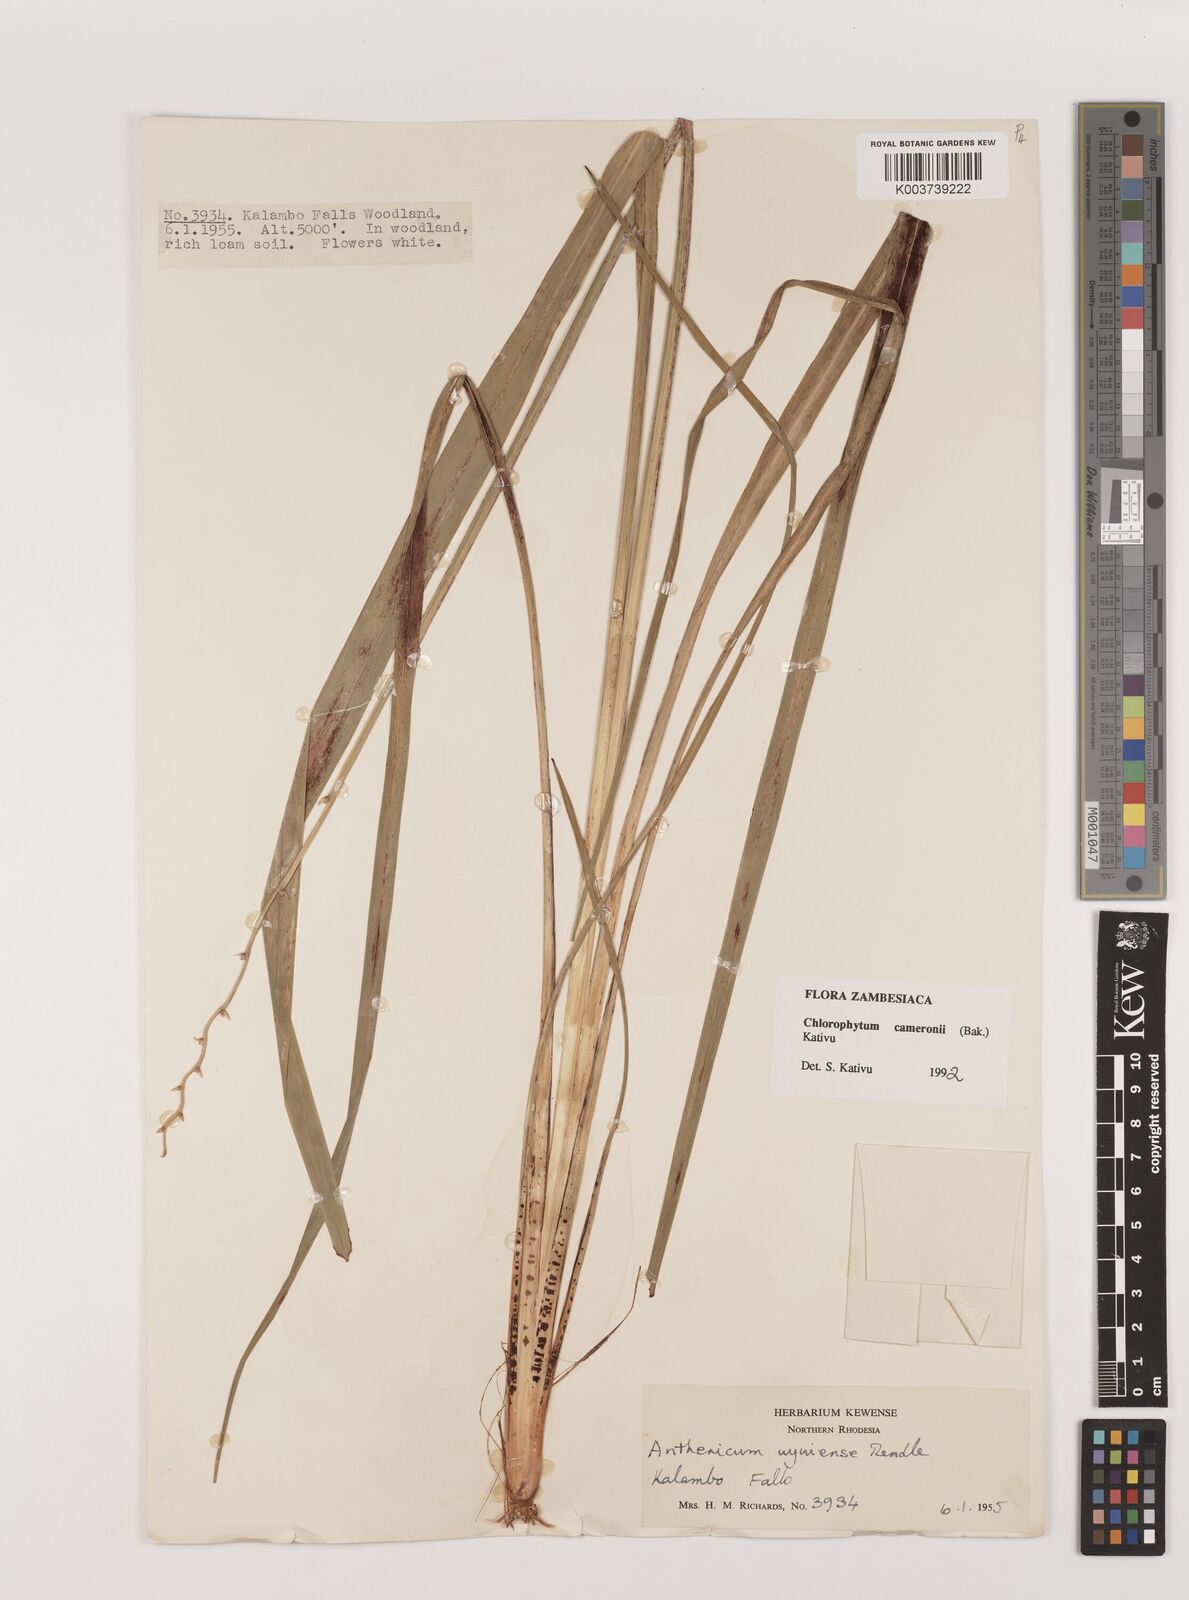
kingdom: Plantae
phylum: Tracheophyta
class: Liliopsida
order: Asparagales
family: Asparagaceae
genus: Chlorophytum
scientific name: Chlorophytum cameronii
